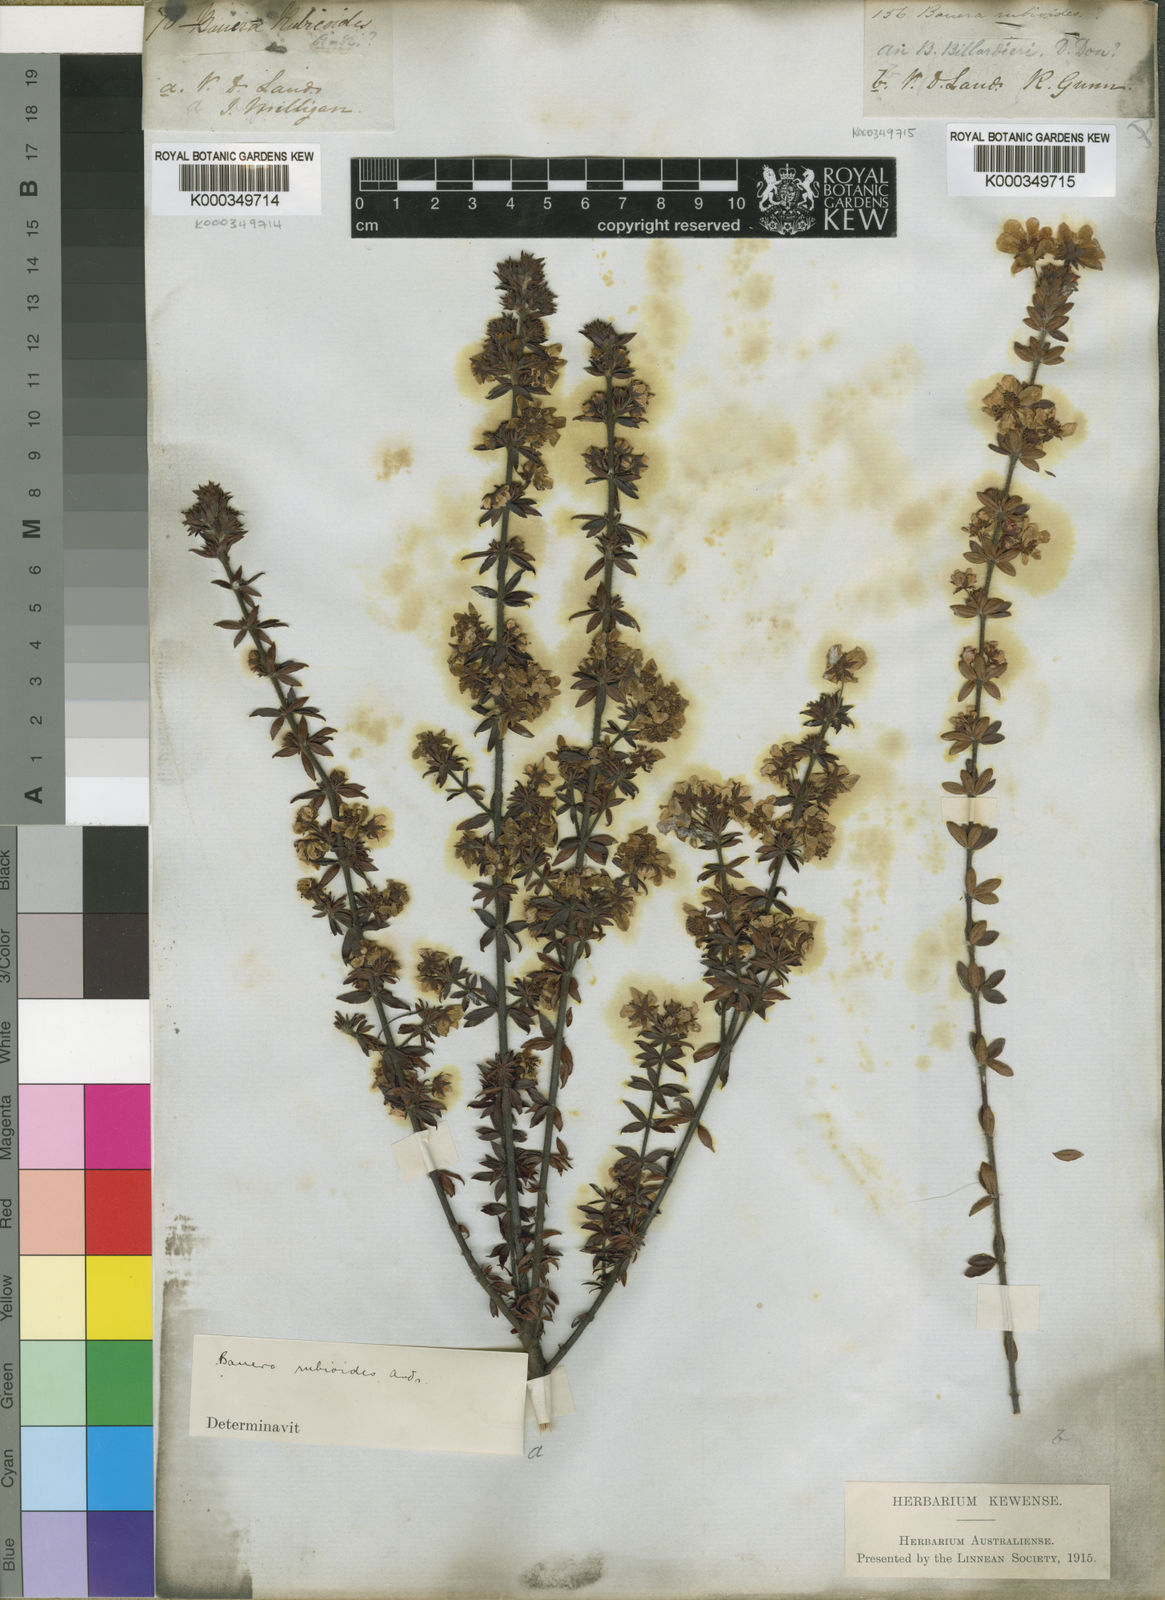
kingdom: Plantae
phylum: Tracheophyta
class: Magnoliopsida
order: Oxalidales
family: Cunoniaceae
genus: Bauera
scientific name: Bauera rubioides
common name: River-rose
